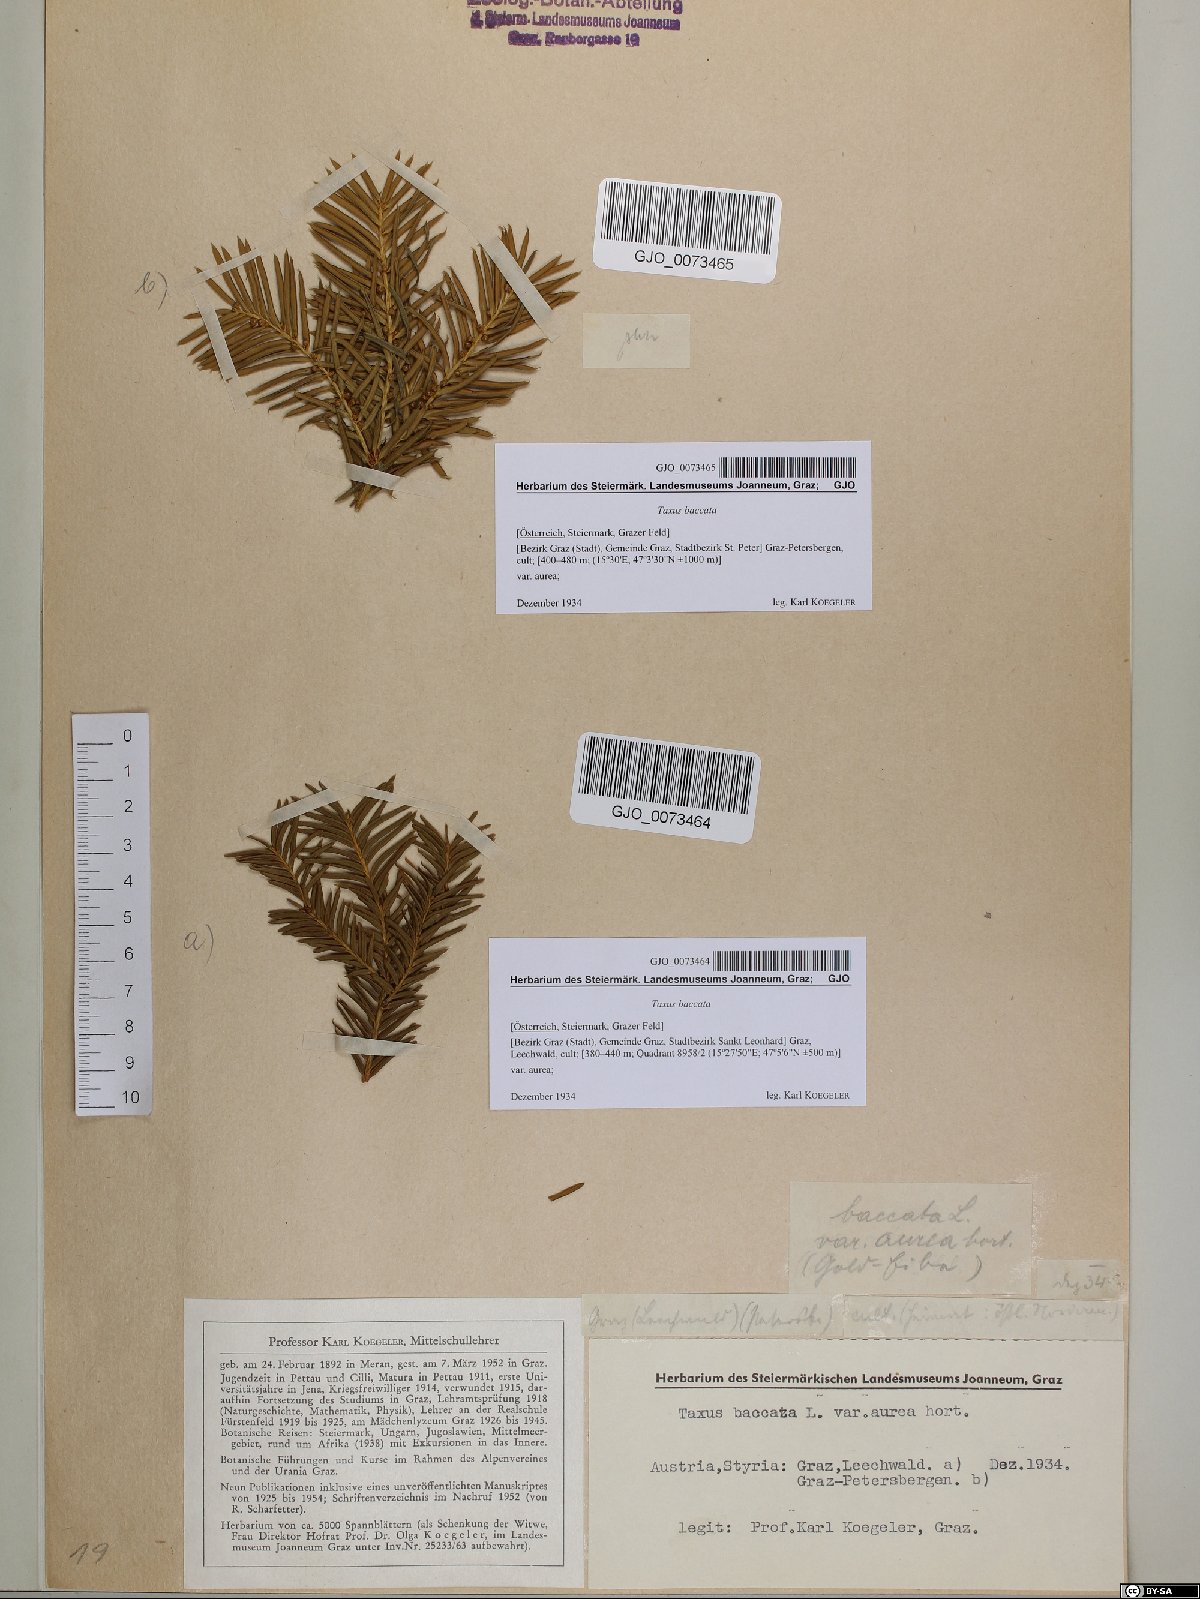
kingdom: Plantae
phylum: Tracheophyta
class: Pinopsida
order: Pinales
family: Taxaceae
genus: Taxus
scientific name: Taxus baccata
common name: Yew
